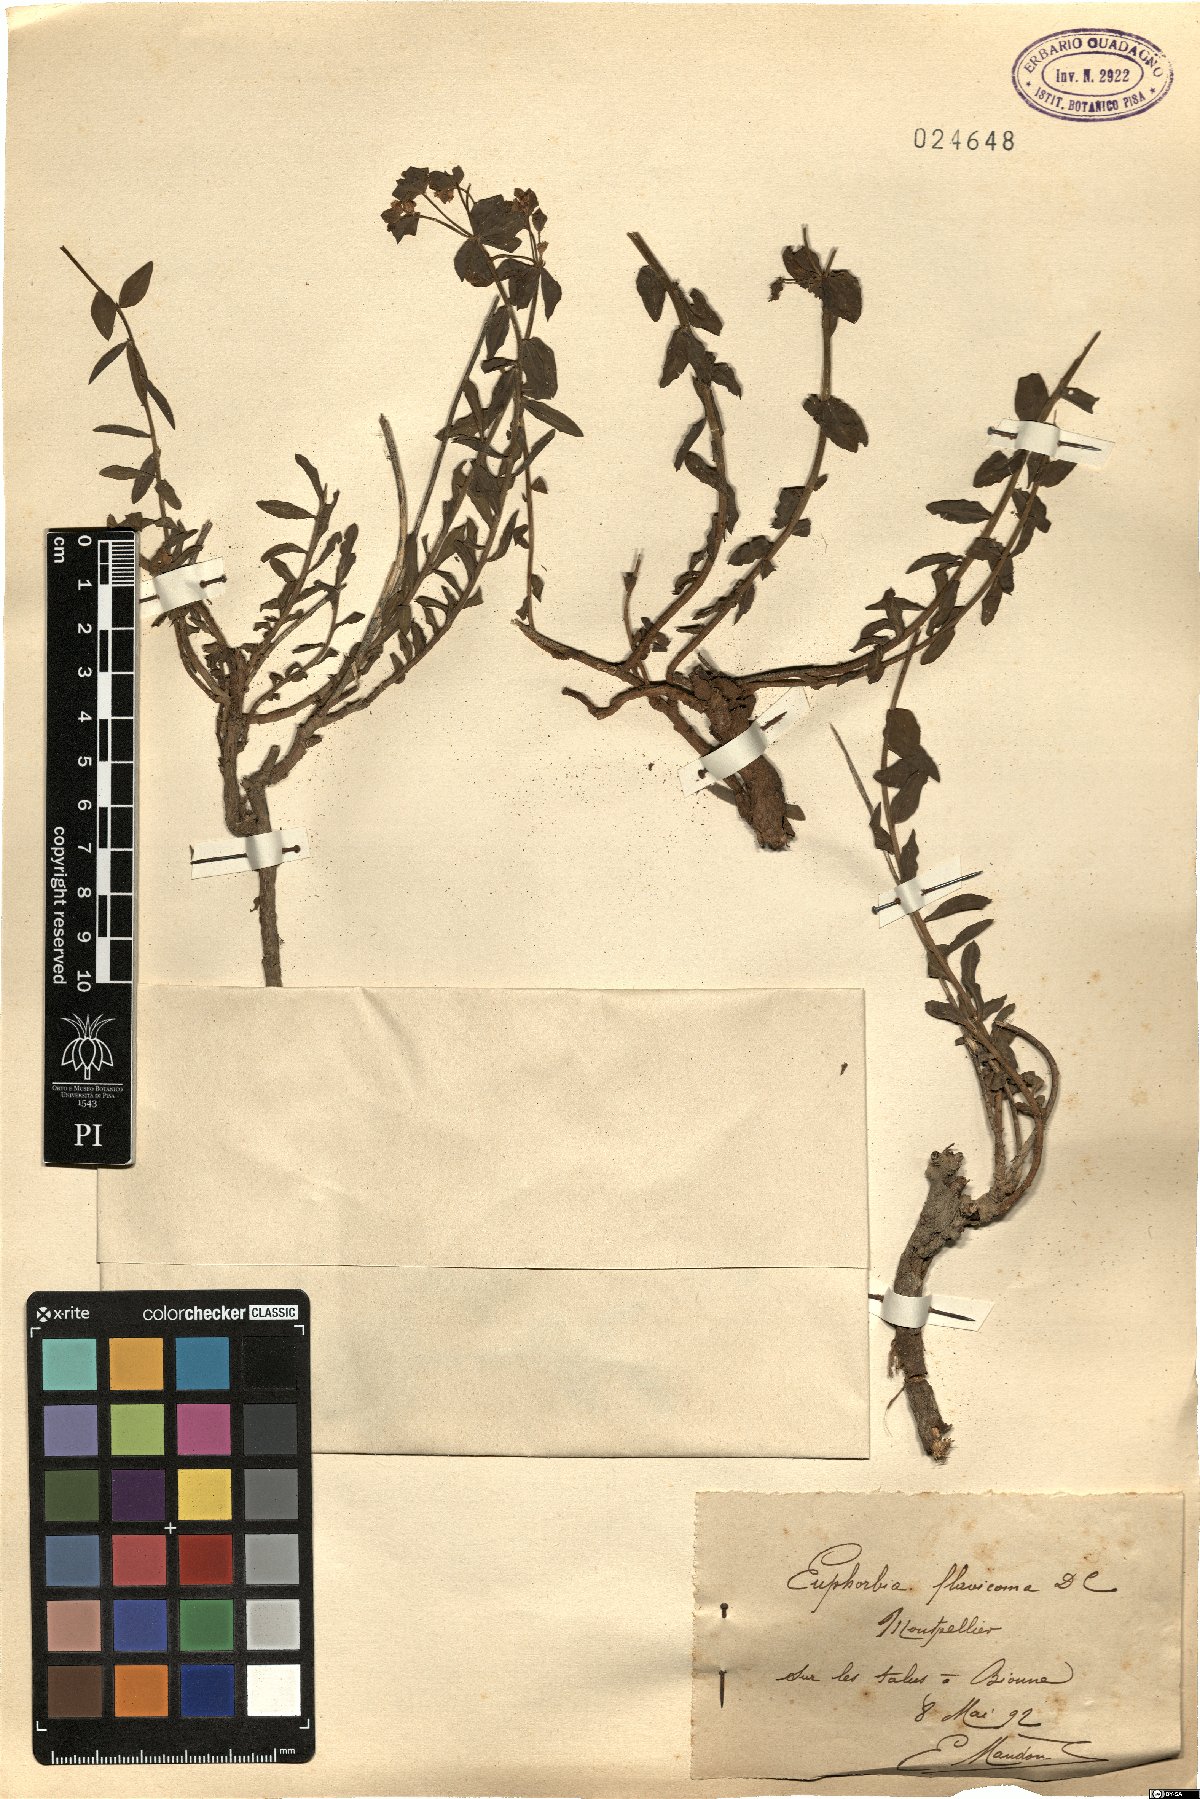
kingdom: Plantae
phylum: Tracheophyta
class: Magnoliopsida
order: Malpighiales
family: Euphorbiaceae
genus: Euphorbia
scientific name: Euphorbia flavicoma
